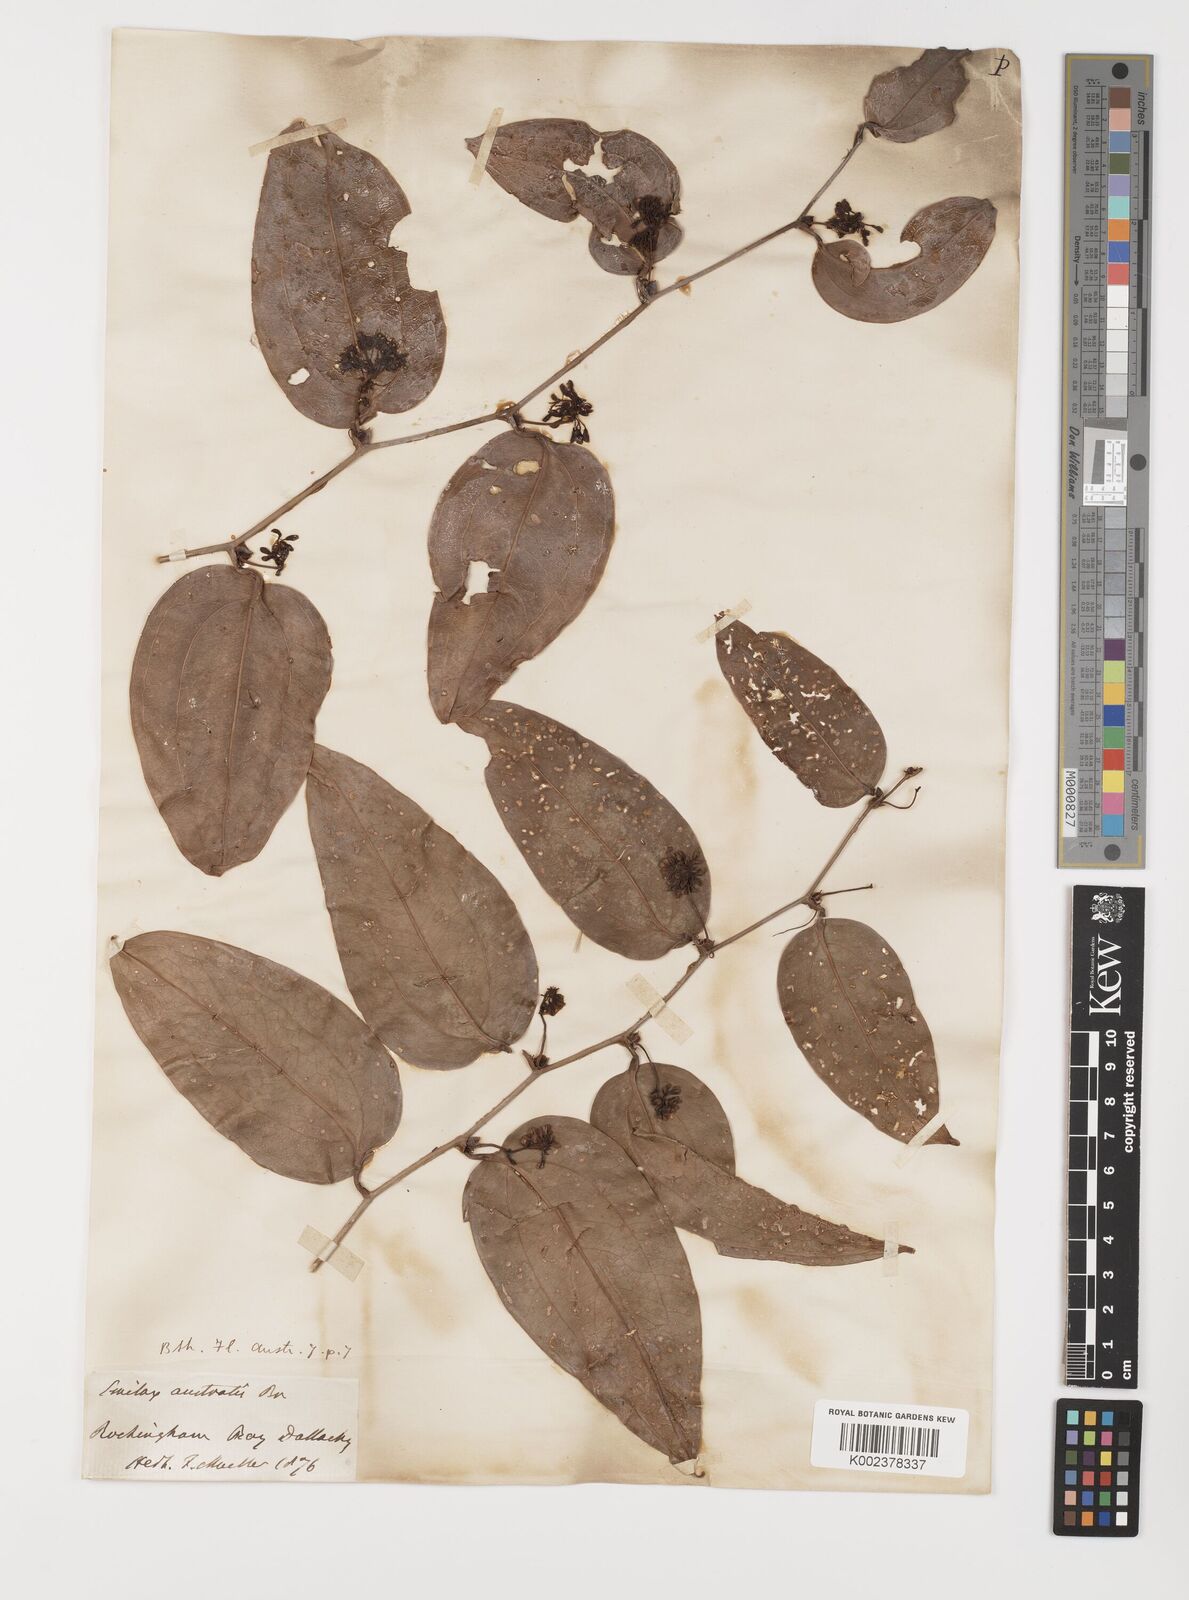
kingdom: Plantae
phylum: Tracheophyta
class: Liliopsida
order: Liliales
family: Smilacaceae
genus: Smilax
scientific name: Smilax australis
